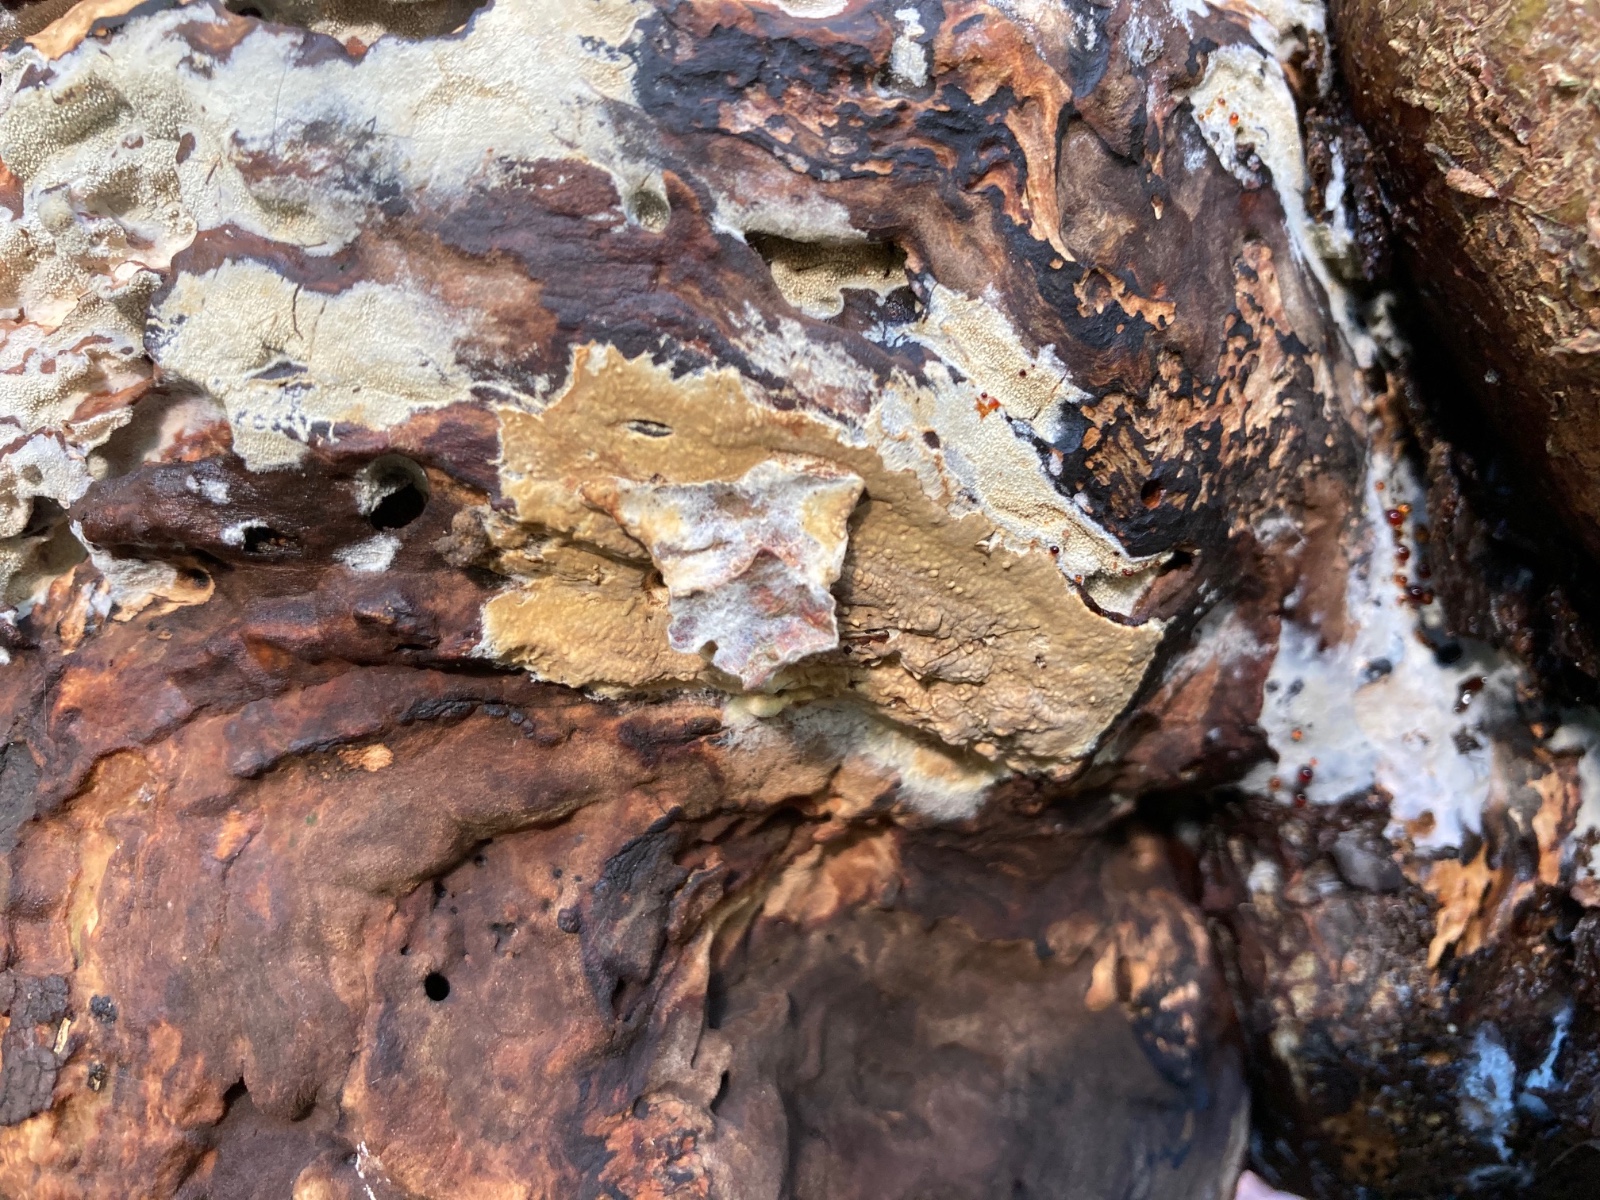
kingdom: Fungi
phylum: Basidiomycota
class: Agaricomycetes
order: Trechisporales
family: Hydnodontaceae
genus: Brevicellicium
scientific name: Brevicellicium olivascens
